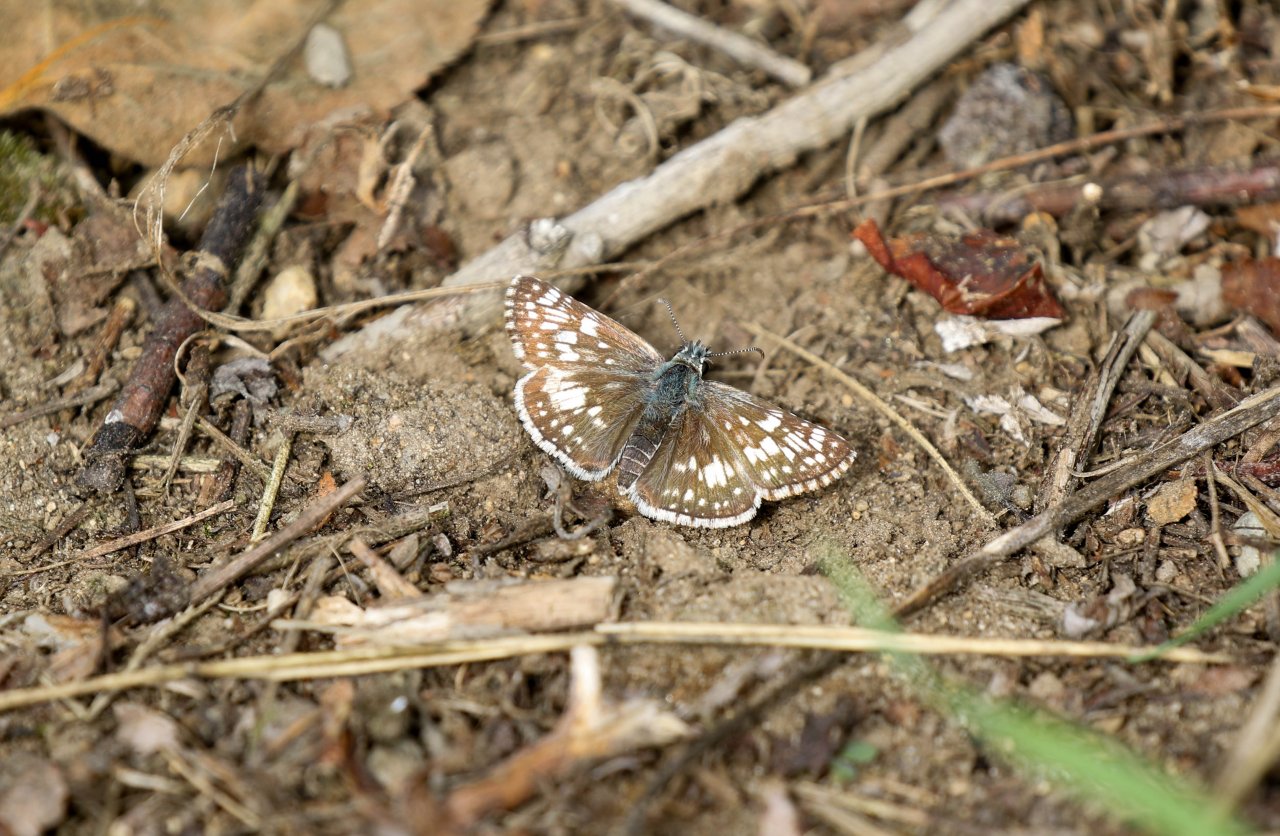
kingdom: Animalia
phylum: Arthropoda
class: Insecta
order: Lepidoptera
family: Hesperiidae
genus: Pyrgus
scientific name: Pyrgus communis
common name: Common Checkered-Skipper
